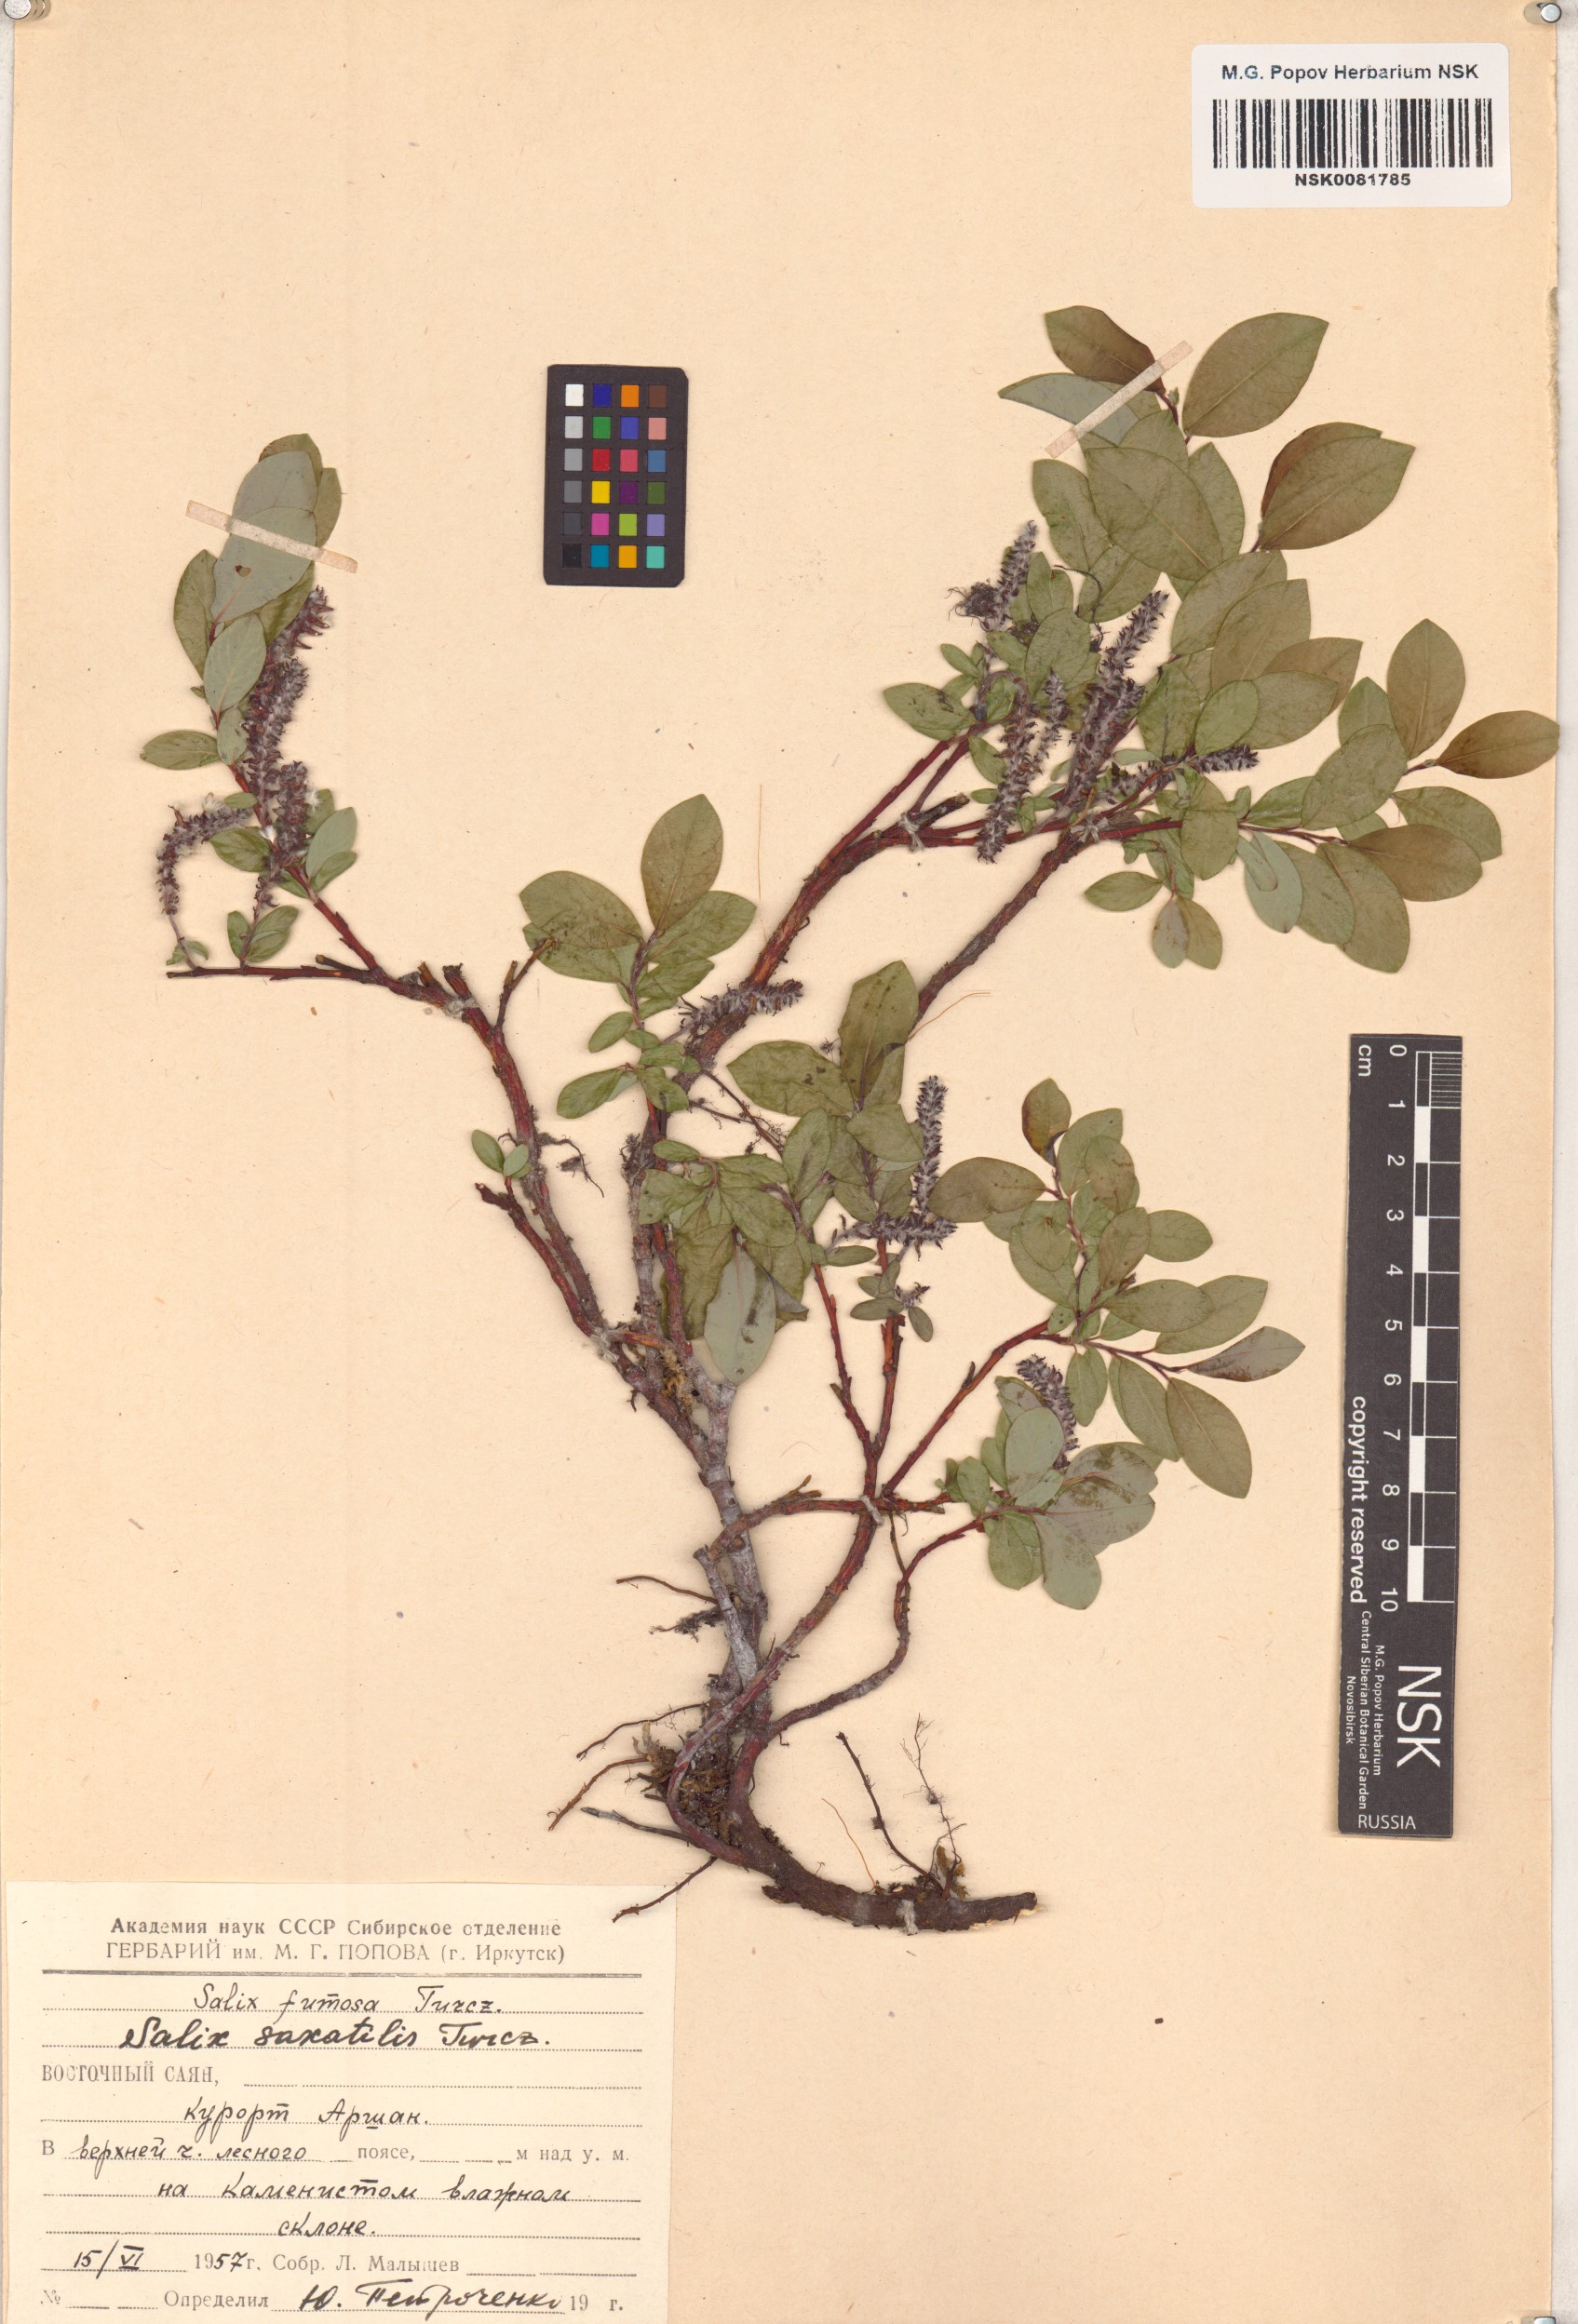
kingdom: Plantae
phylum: Tracheophyta
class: Magnoliopsida
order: Malpighiales
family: Salicaceae
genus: Salix
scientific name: Salix saxatilis
